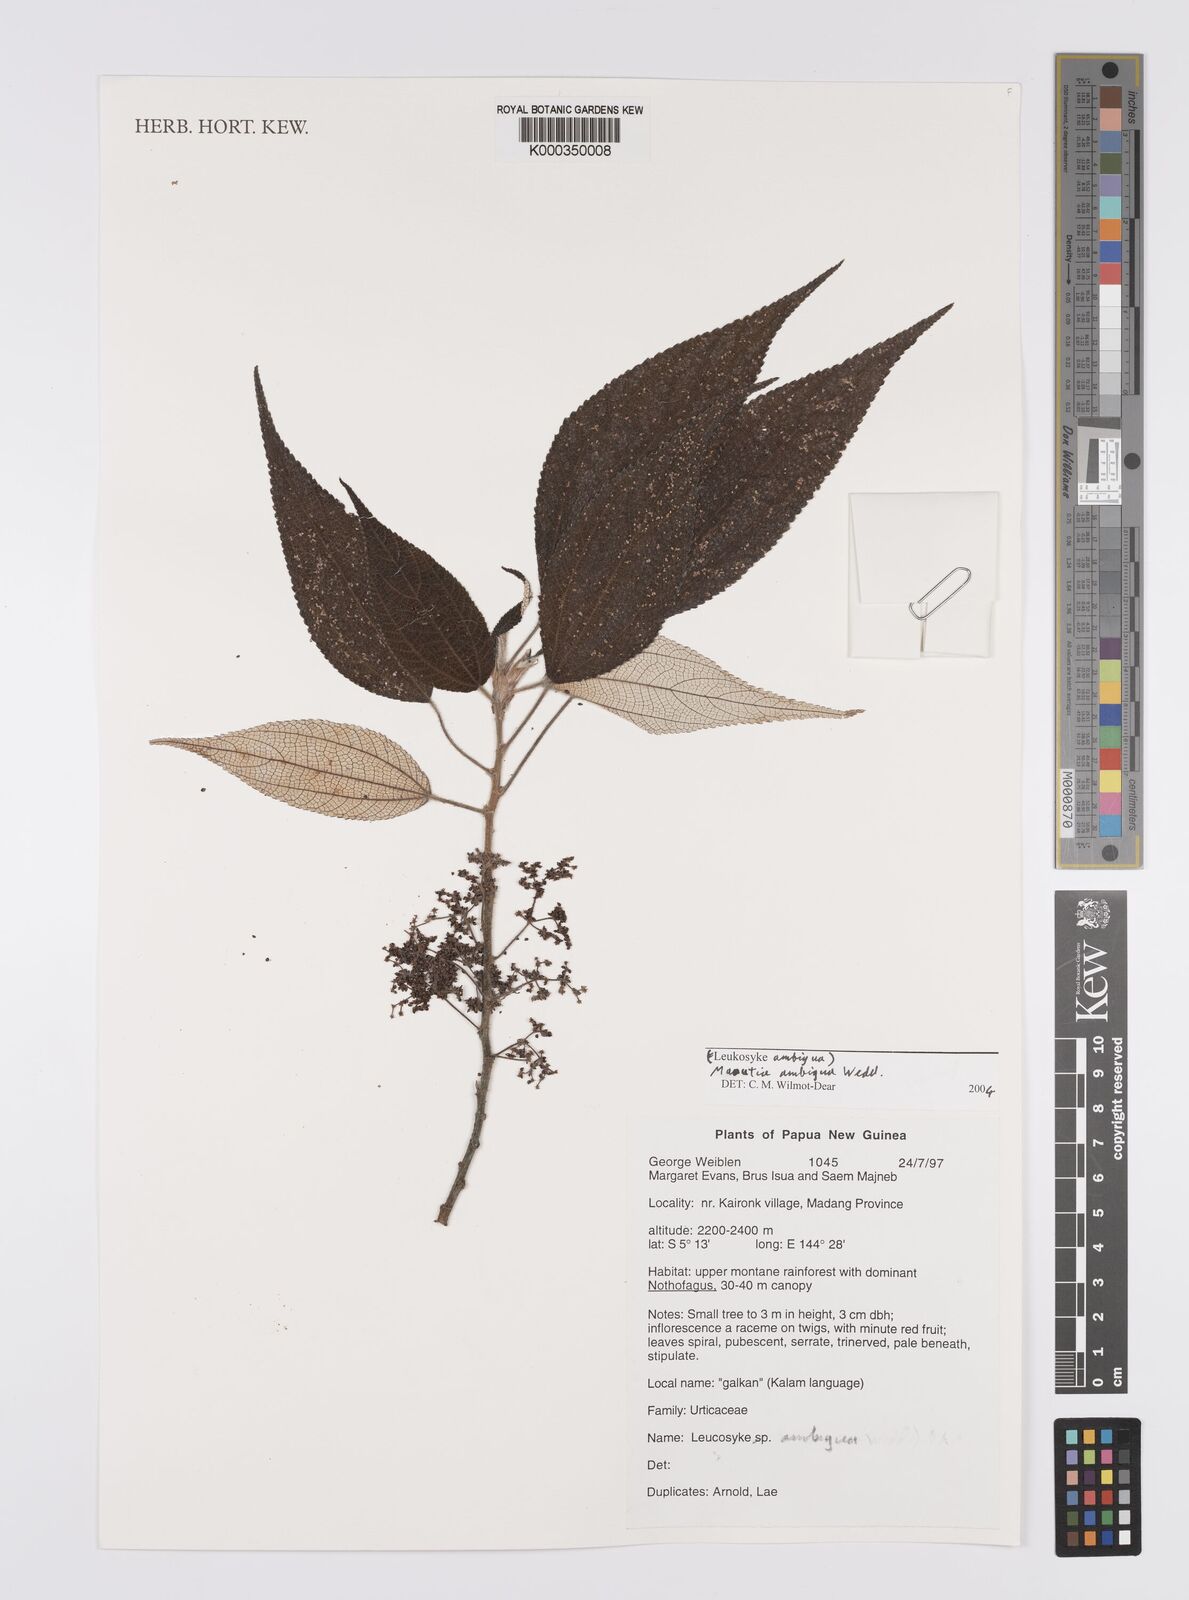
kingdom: Plantae
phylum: Tracheophyta
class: Magnoliopsida
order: Rosales
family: Urticaceae
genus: Maoutia
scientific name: Maoutia ambigua
